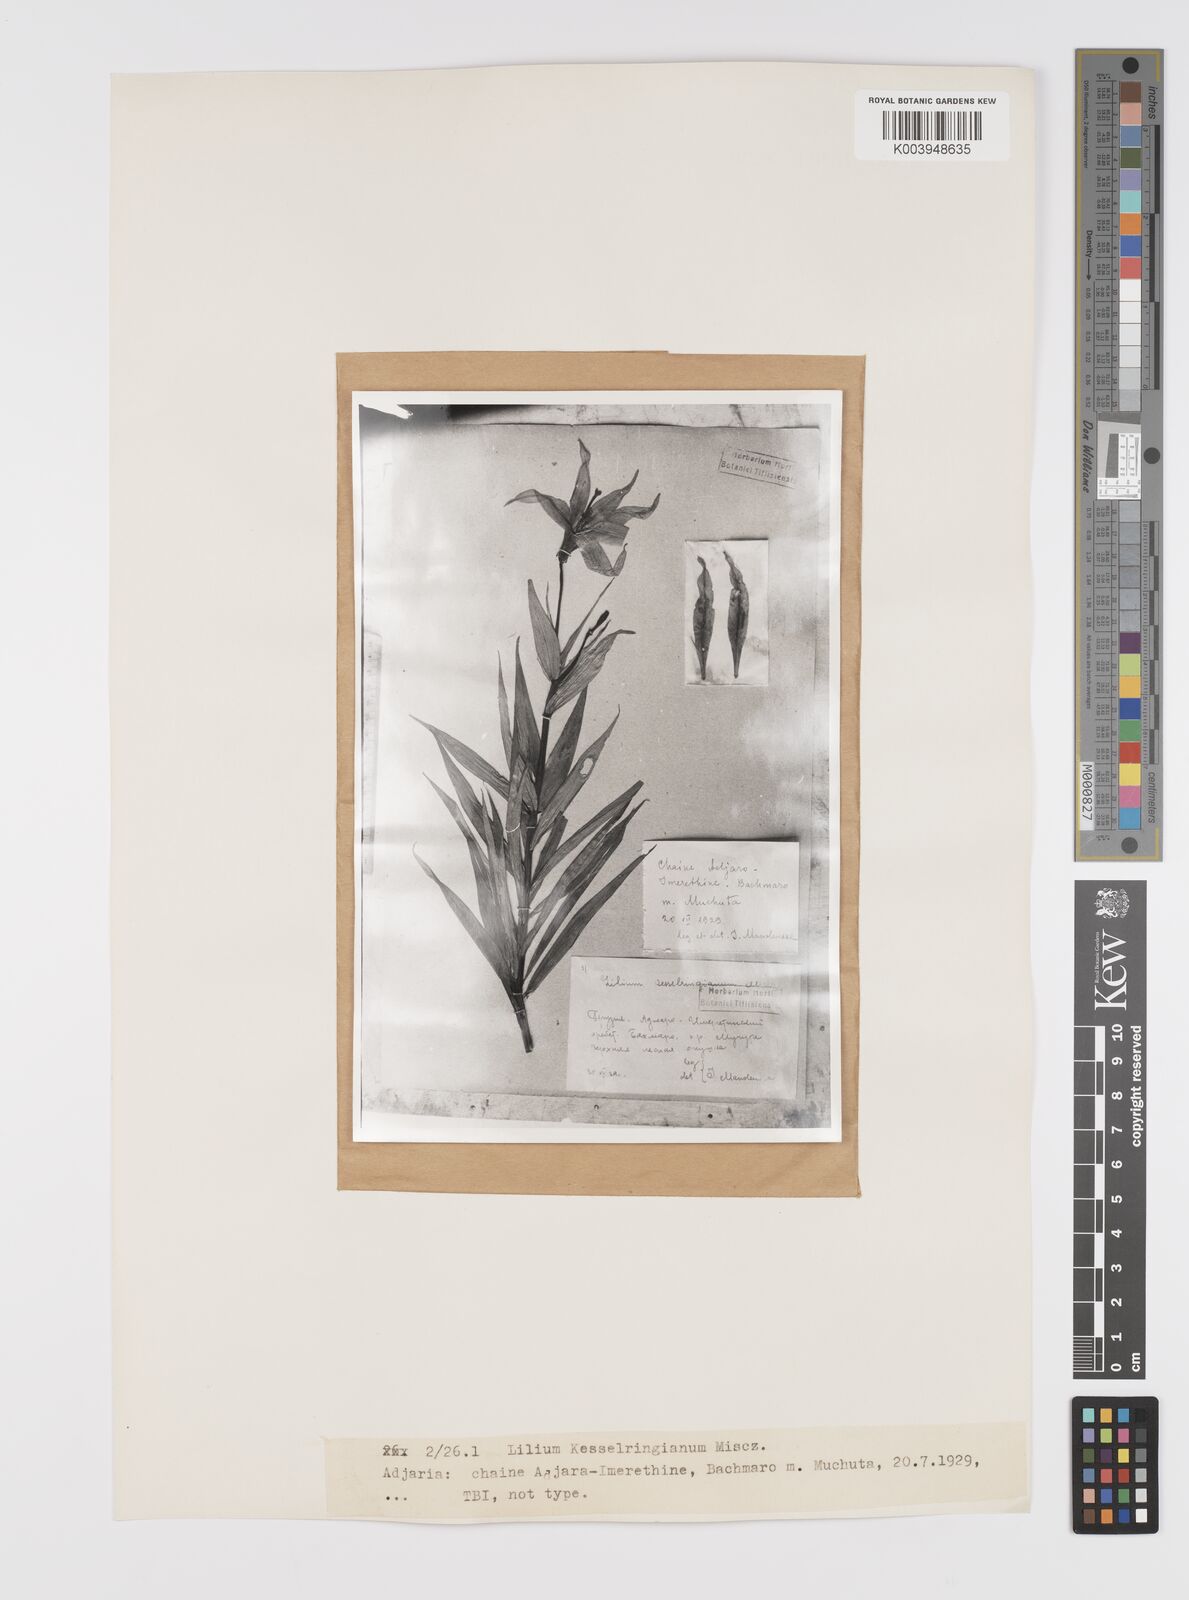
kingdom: Plantae
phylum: Tracheophyta
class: Liliopsida
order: Liliales
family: Liliaceae
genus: Lilium
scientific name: Lilium kesselringianum
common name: Kesselring lily
